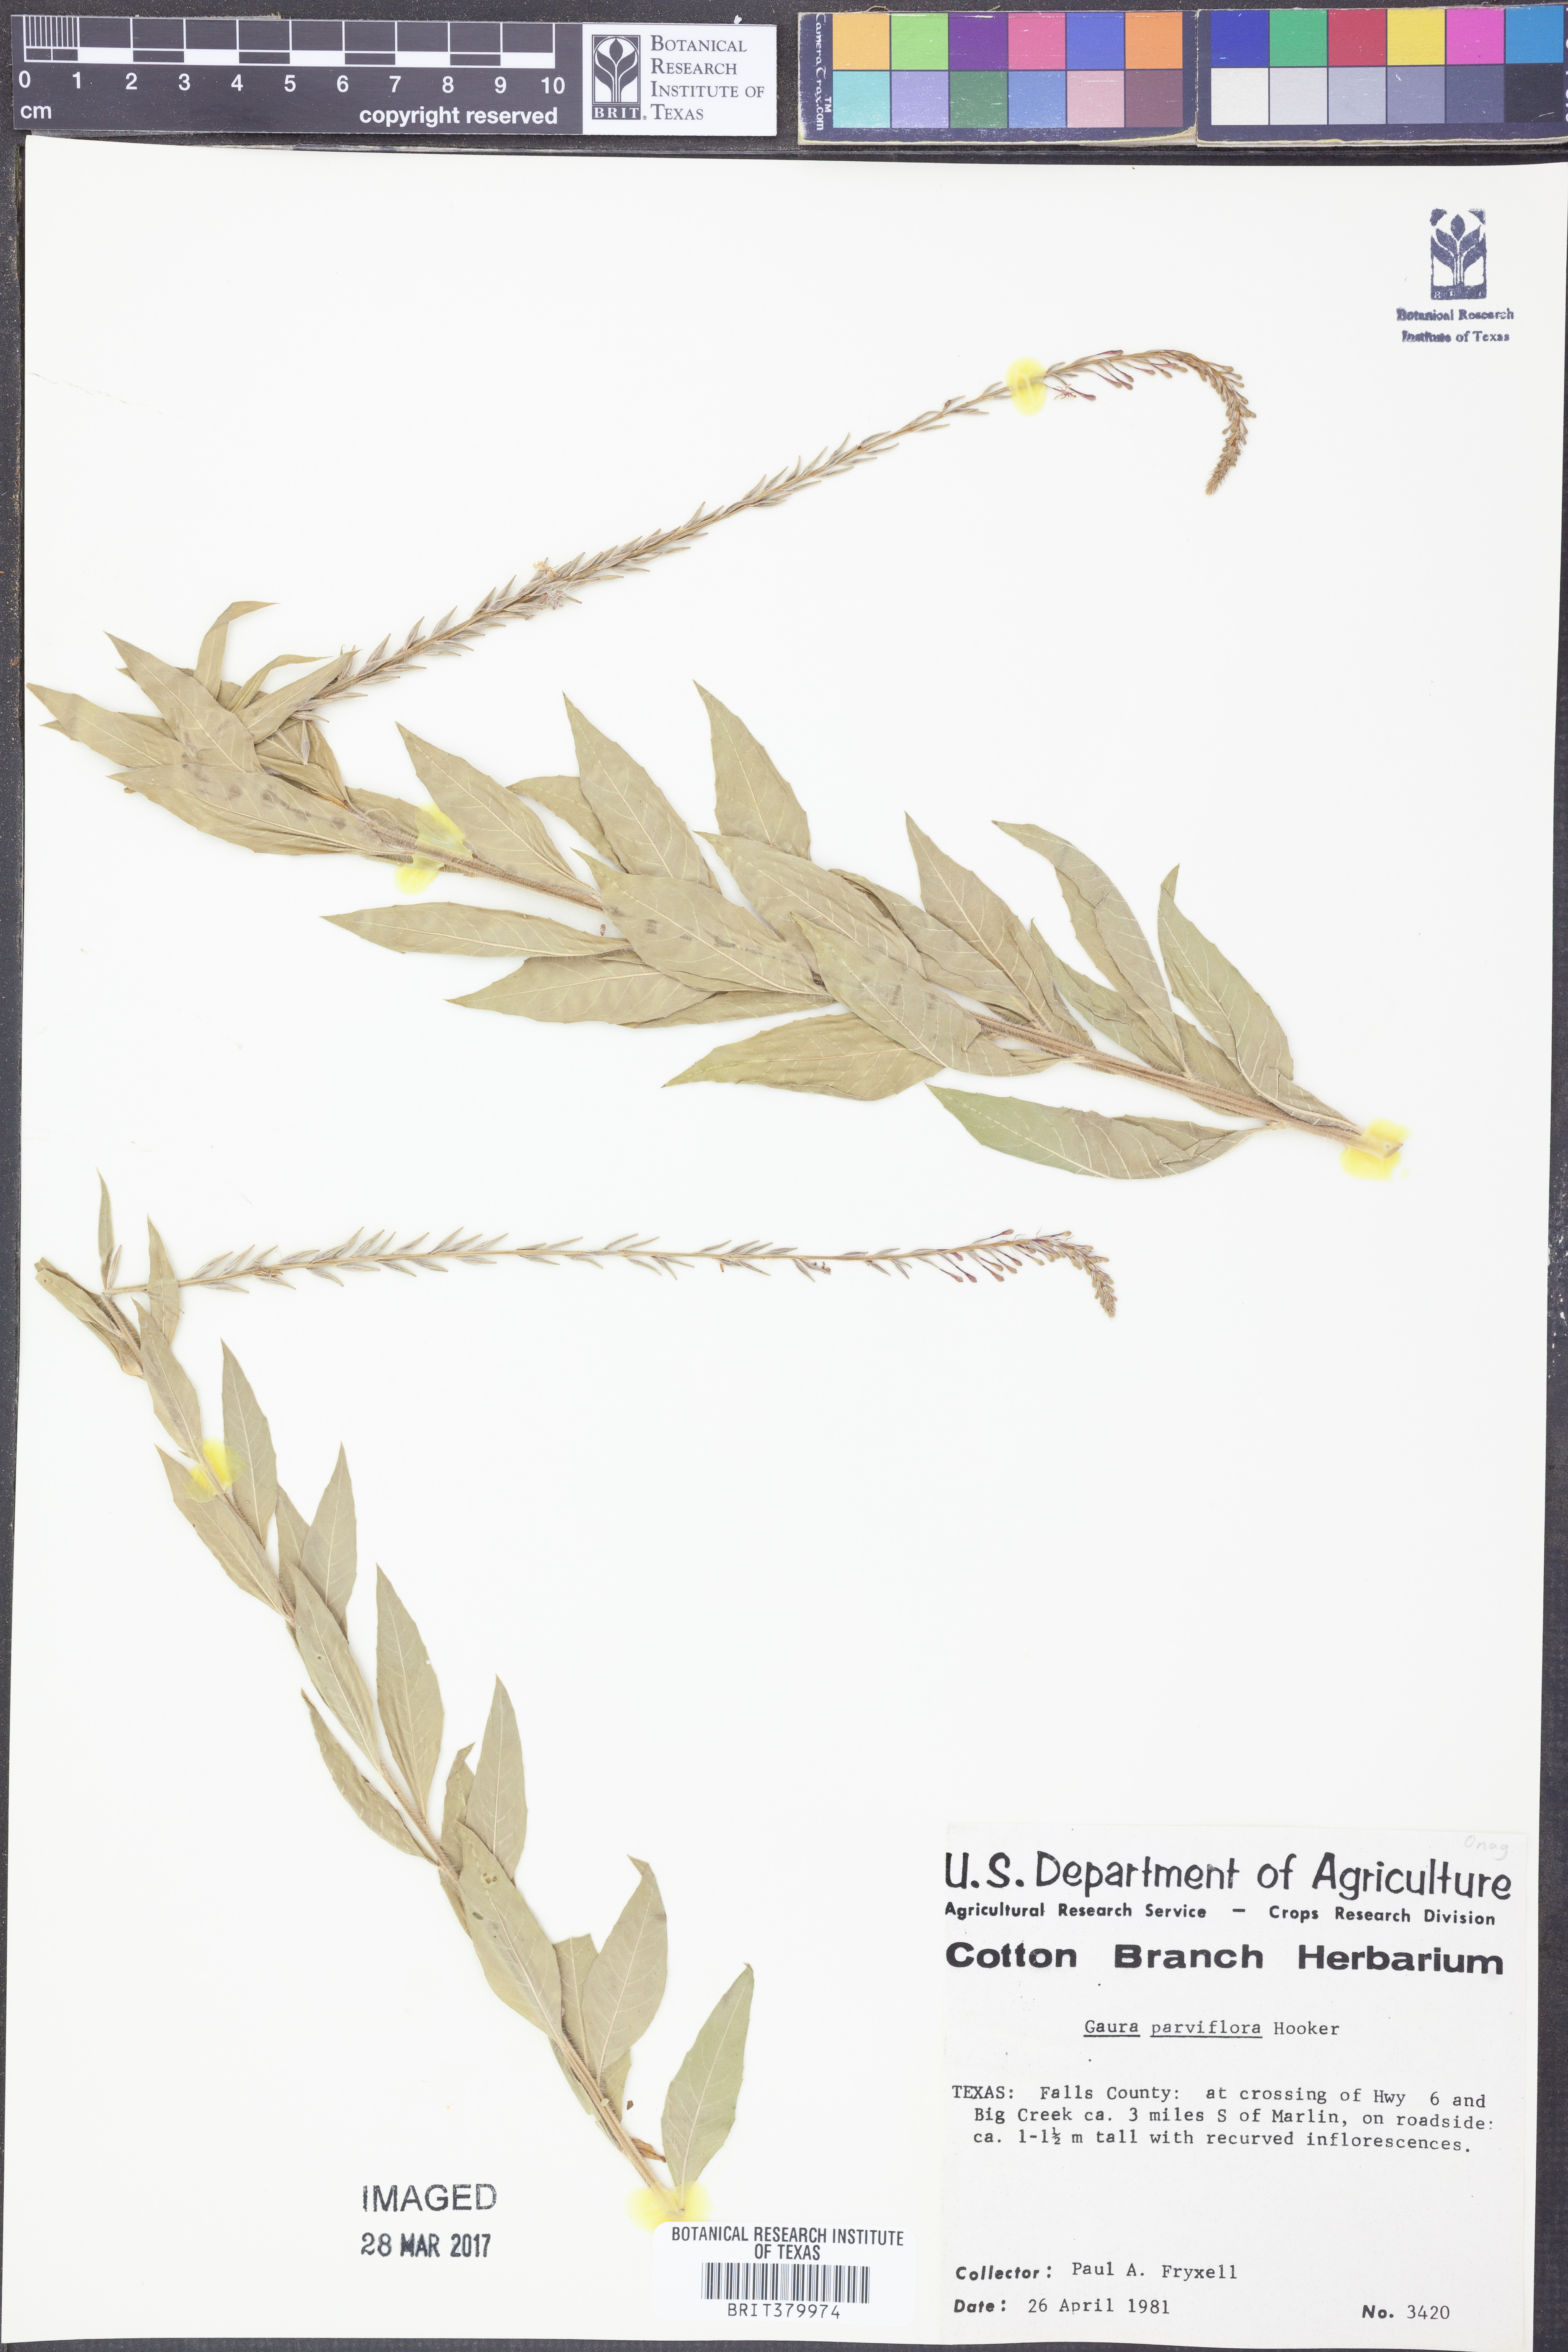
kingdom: Plantae
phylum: Tracheophyta
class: Magnoliopsida
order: Myrtales
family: Onagraceae
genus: Oenothera
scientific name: Oenothera curtiflora
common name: Velvetweed
